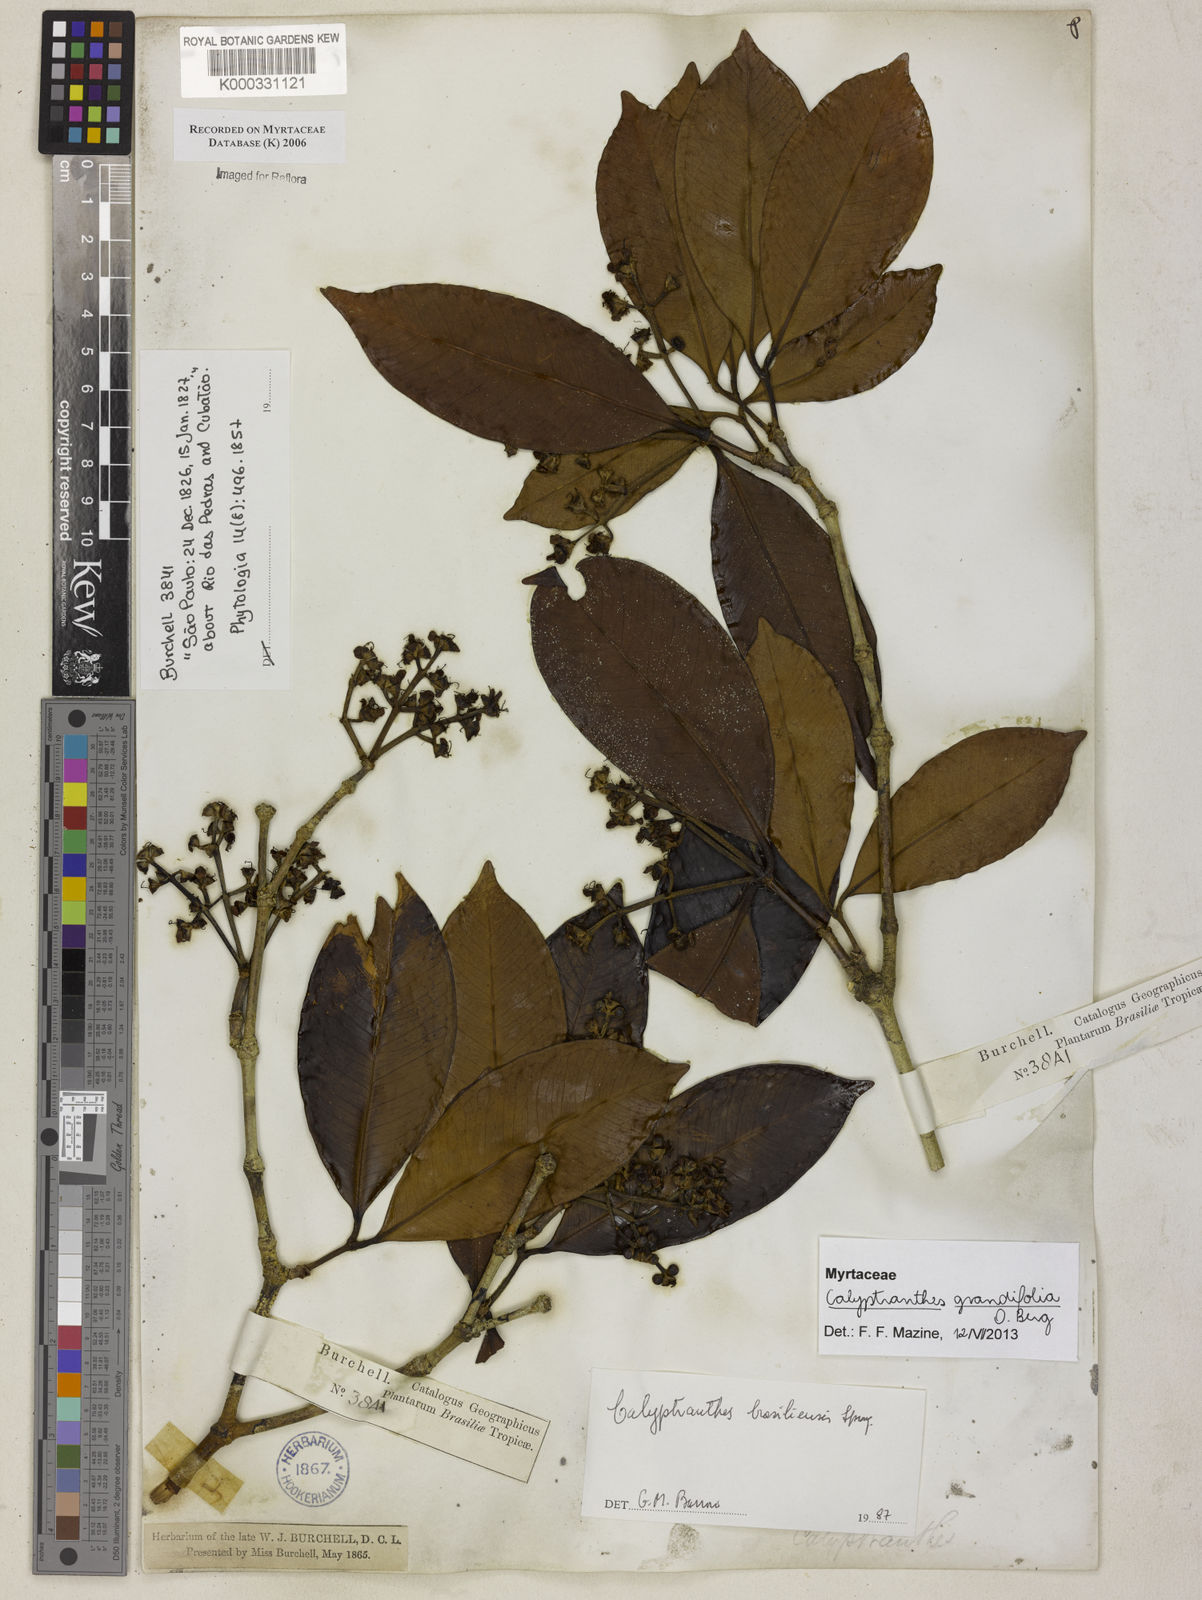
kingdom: Plantae
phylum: Tracheophyta
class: Magnoliopsida
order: Myrtales
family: Myrtaceae
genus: Myrcia
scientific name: Myrcia neobrasiliensis
